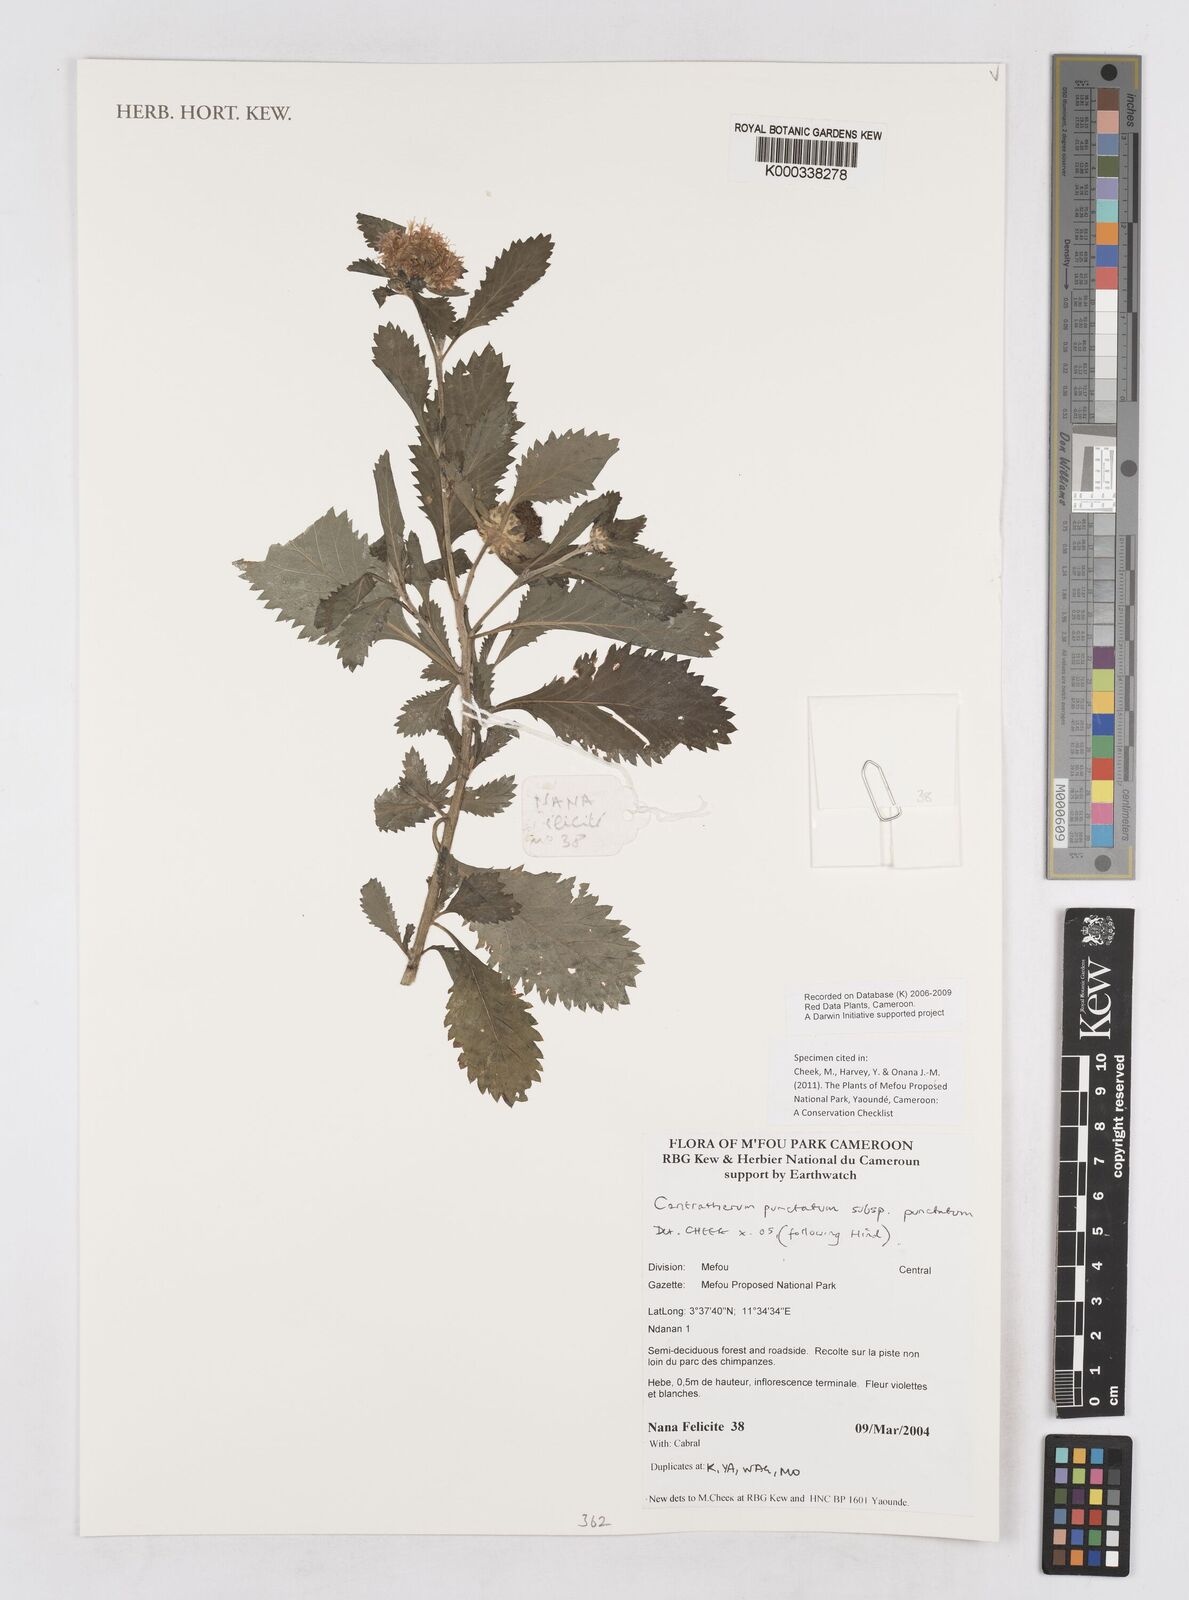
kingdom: Plantae
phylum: Tracheophyta
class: Magnoliopsida
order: Asterales
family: Asteraceae
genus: Centratherum
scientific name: Centratherum punctatum
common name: Larkdaisy
